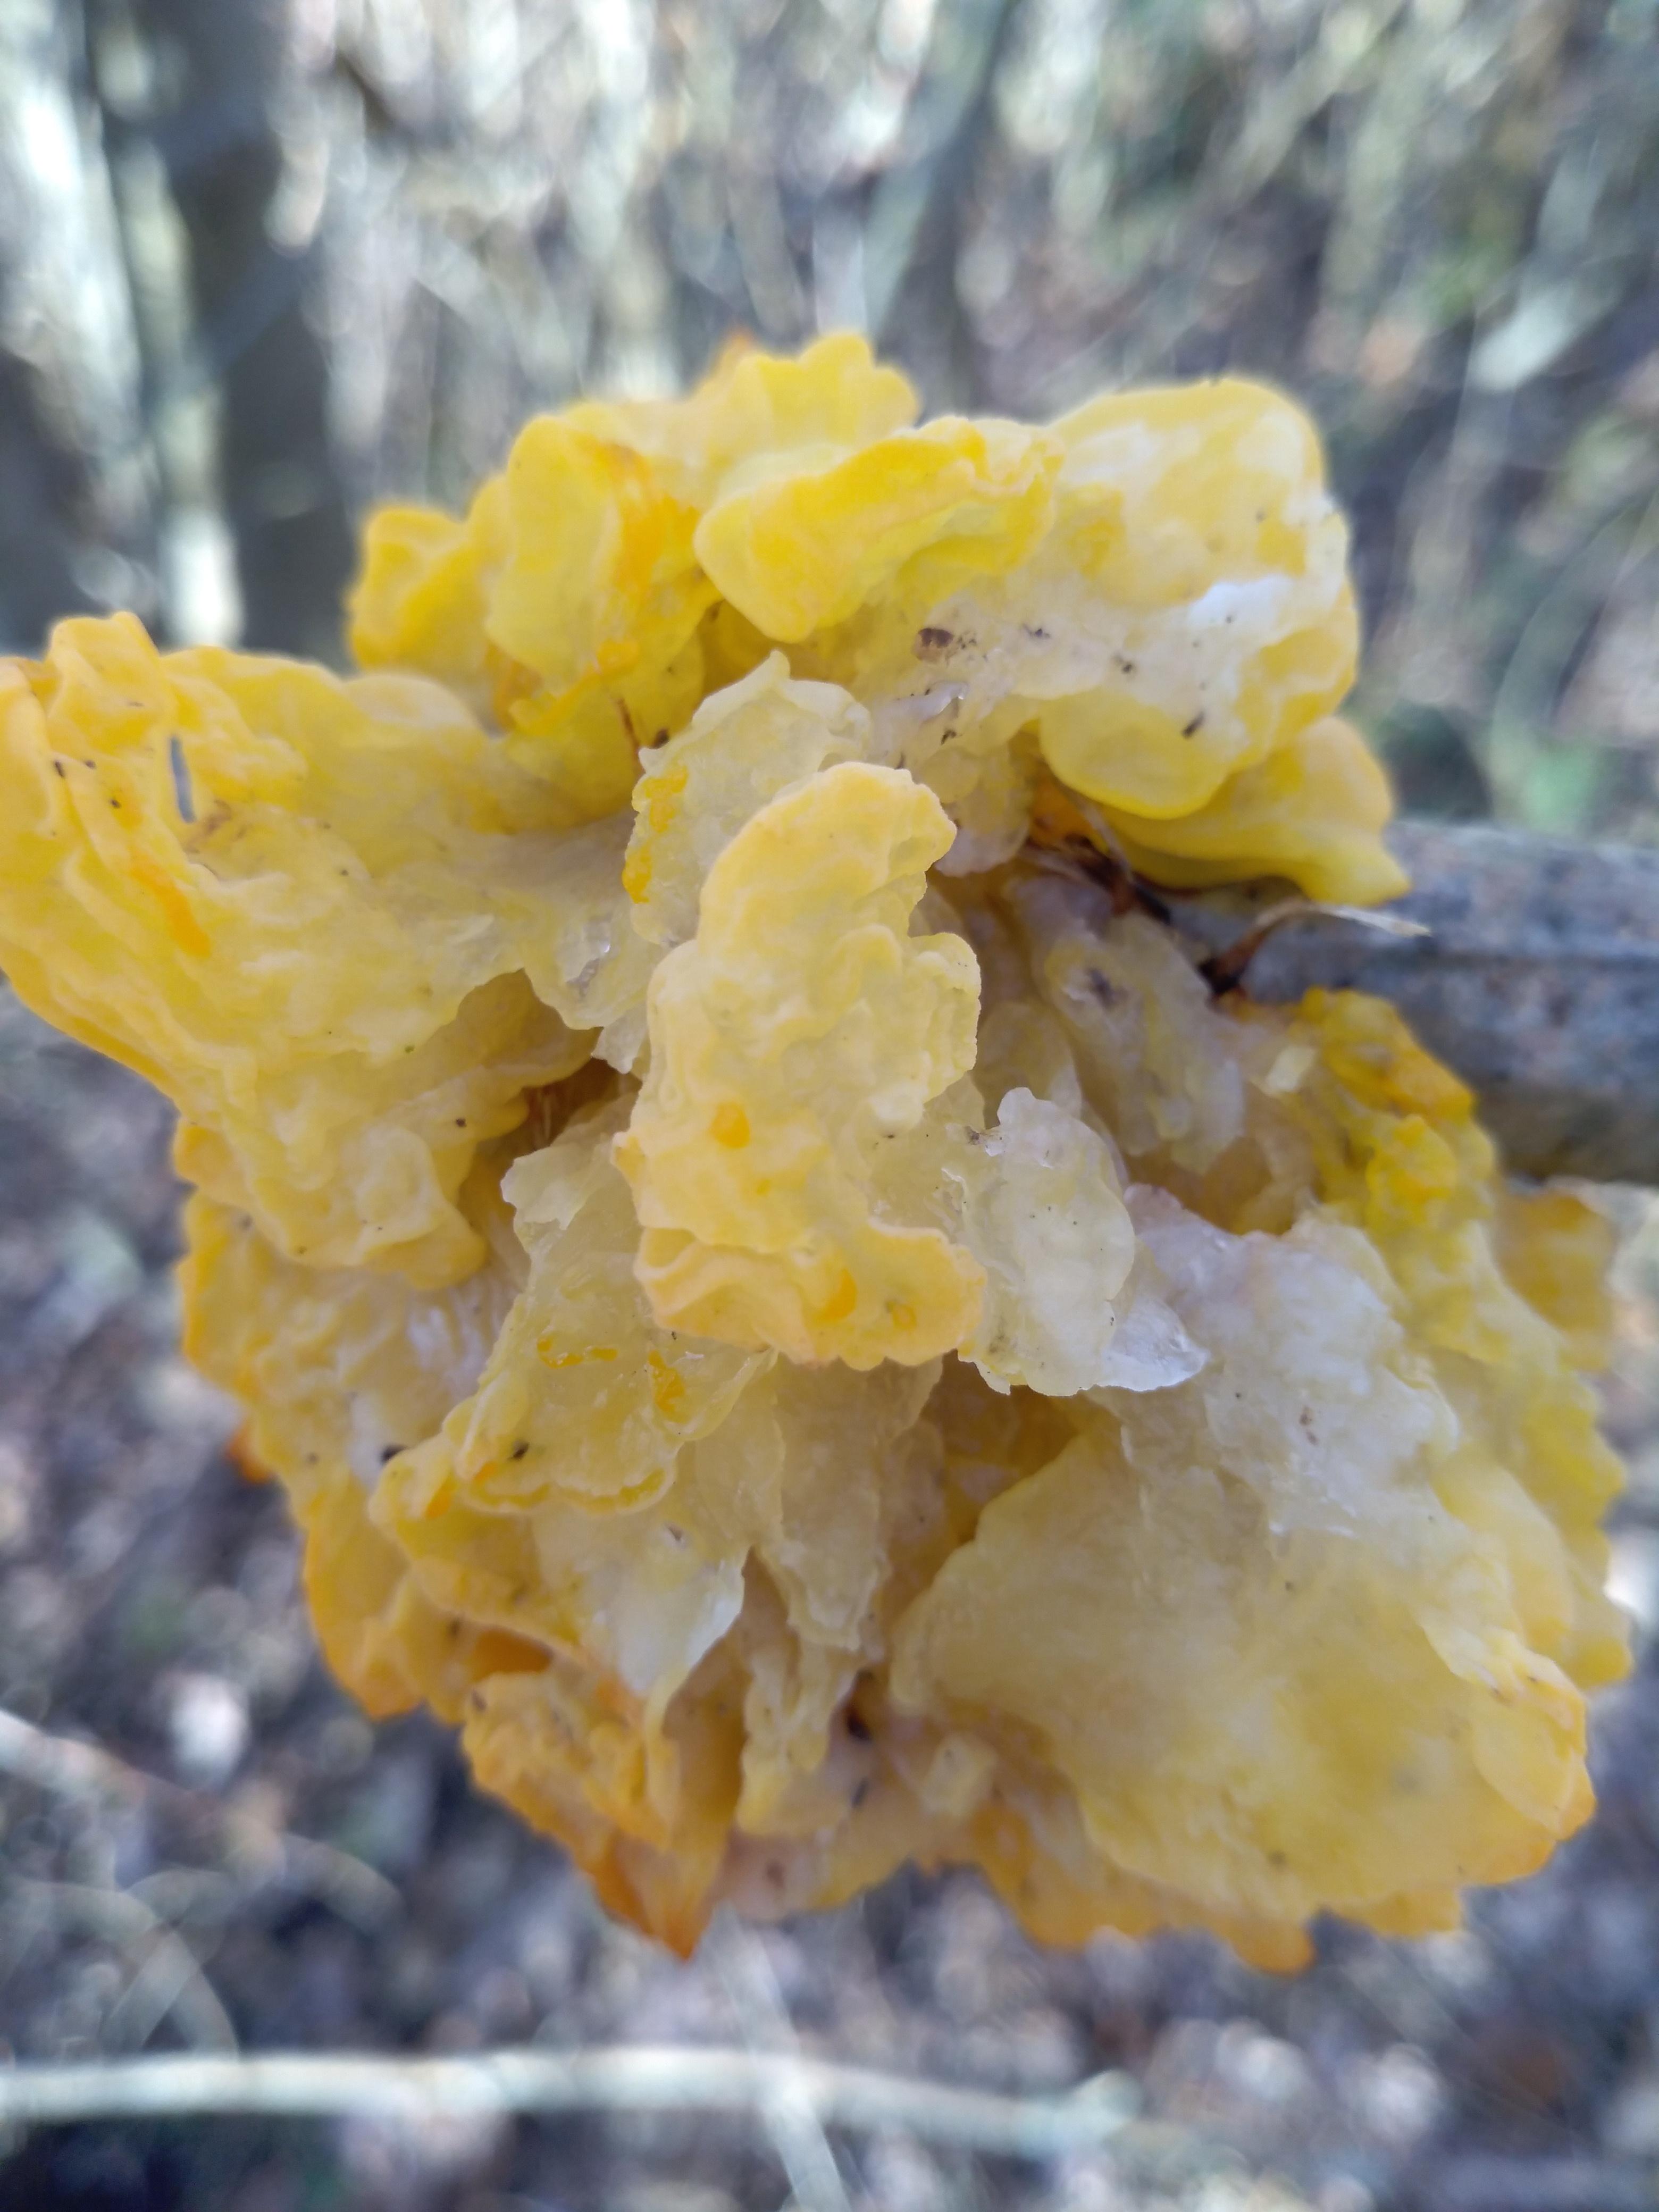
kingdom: Fungi
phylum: Basidiomycota
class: Tremellomycetes
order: Tremellales
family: Tremellaceae
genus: Tremella
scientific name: Tremella mesenterica
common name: gul bævresvamp
